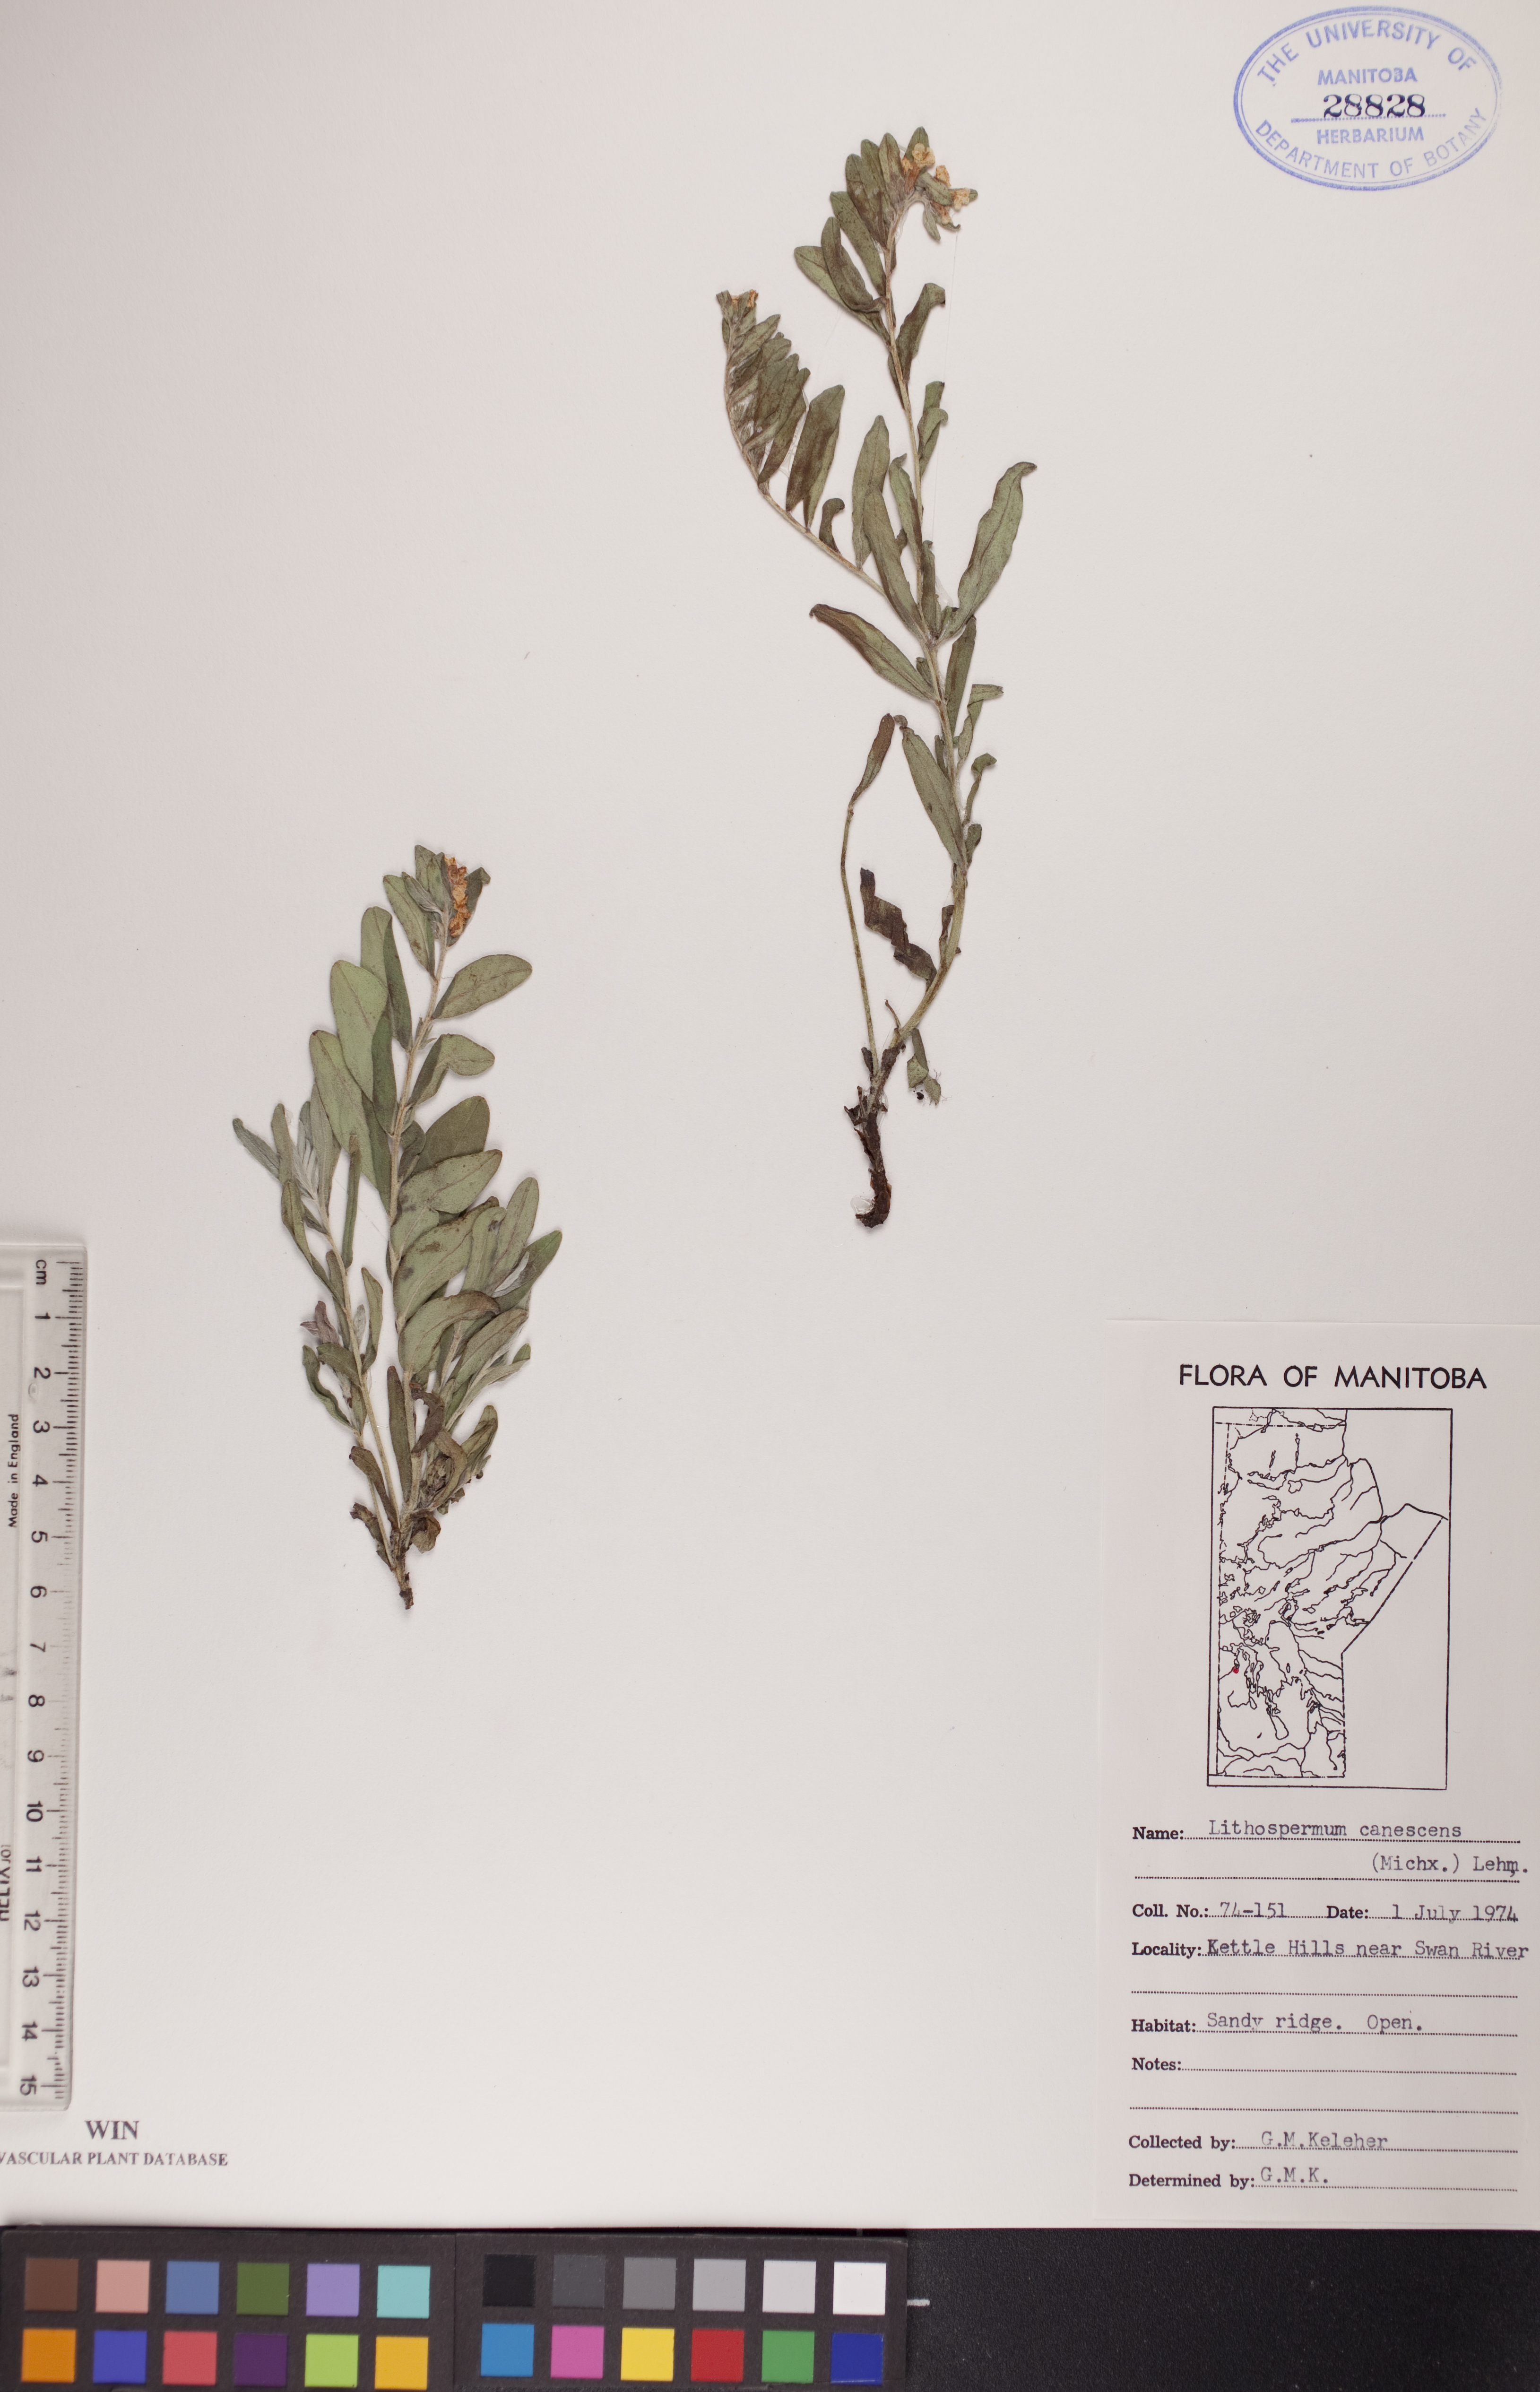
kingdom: Plantae
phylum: Tracheophyta
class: Magnoliopsida
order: Boraginales
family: Boraginaceae
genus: Lithospermum
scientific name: Lithospermum canescens
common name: Hoary puccoon
